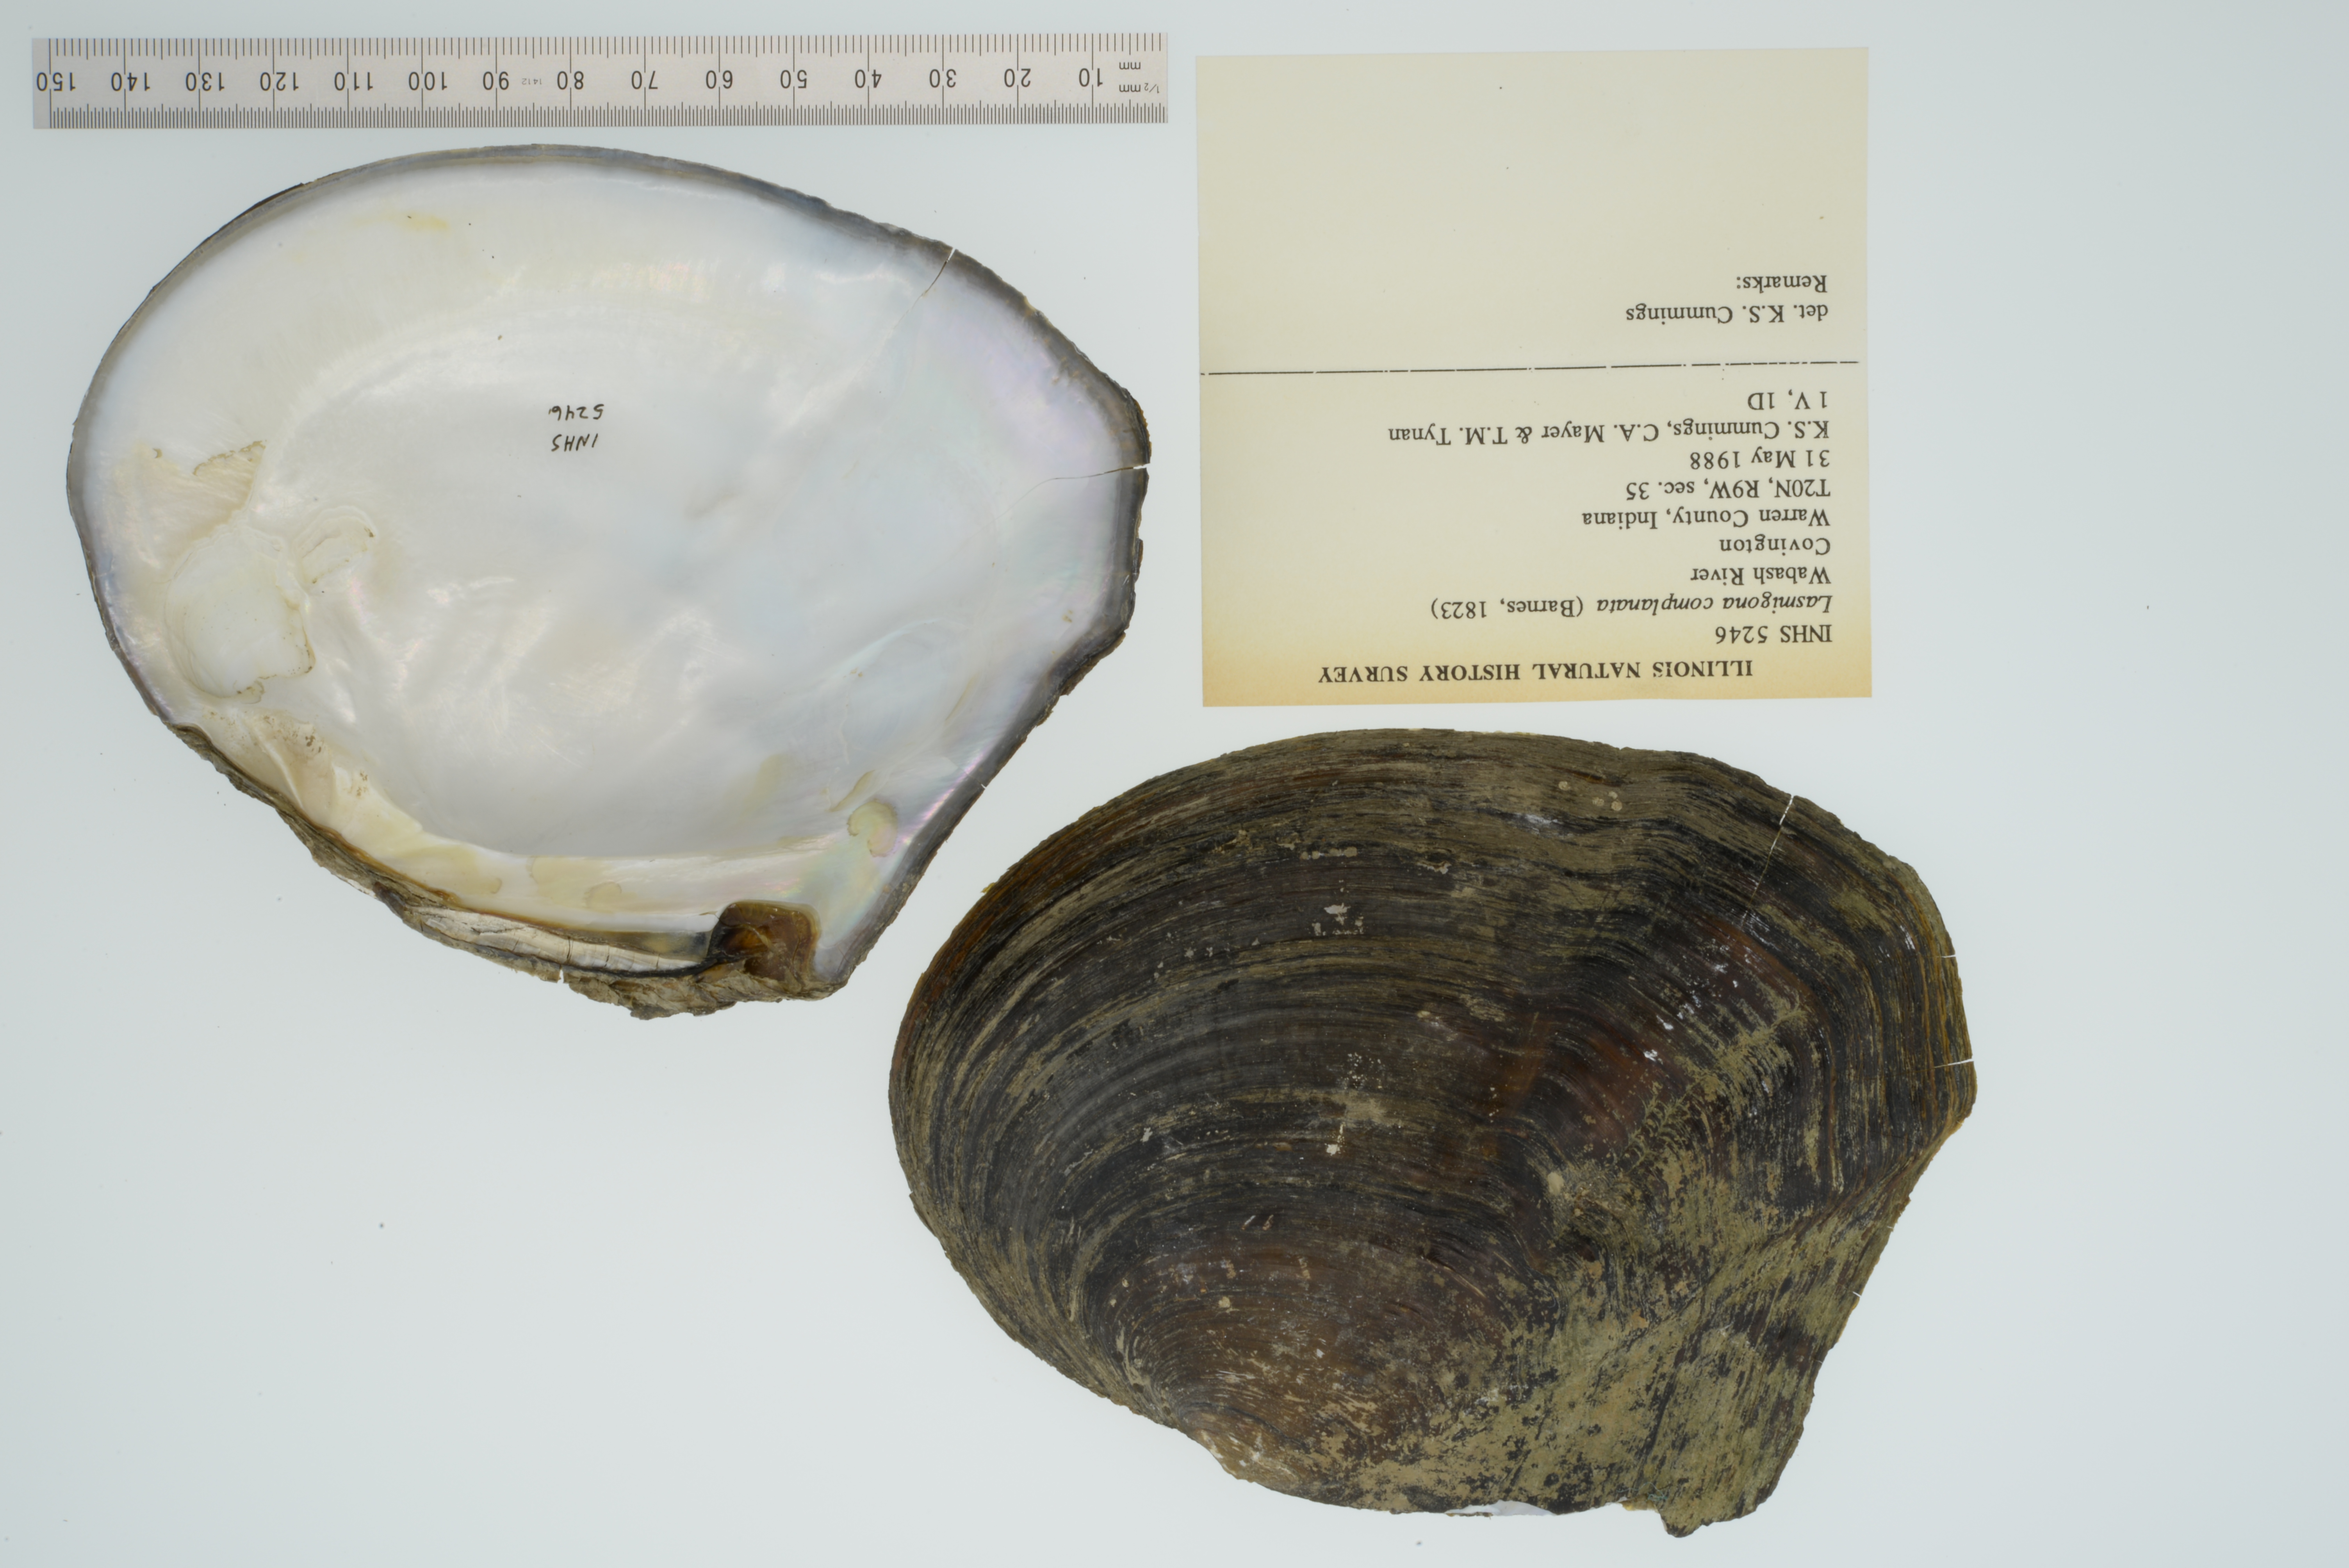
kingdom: Animalia
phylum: Mollusca
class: Bivalvia
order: Unionida
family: Unionidae
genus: Lasmigona
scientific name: Lasmigona complanata
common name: White heelsplitter
